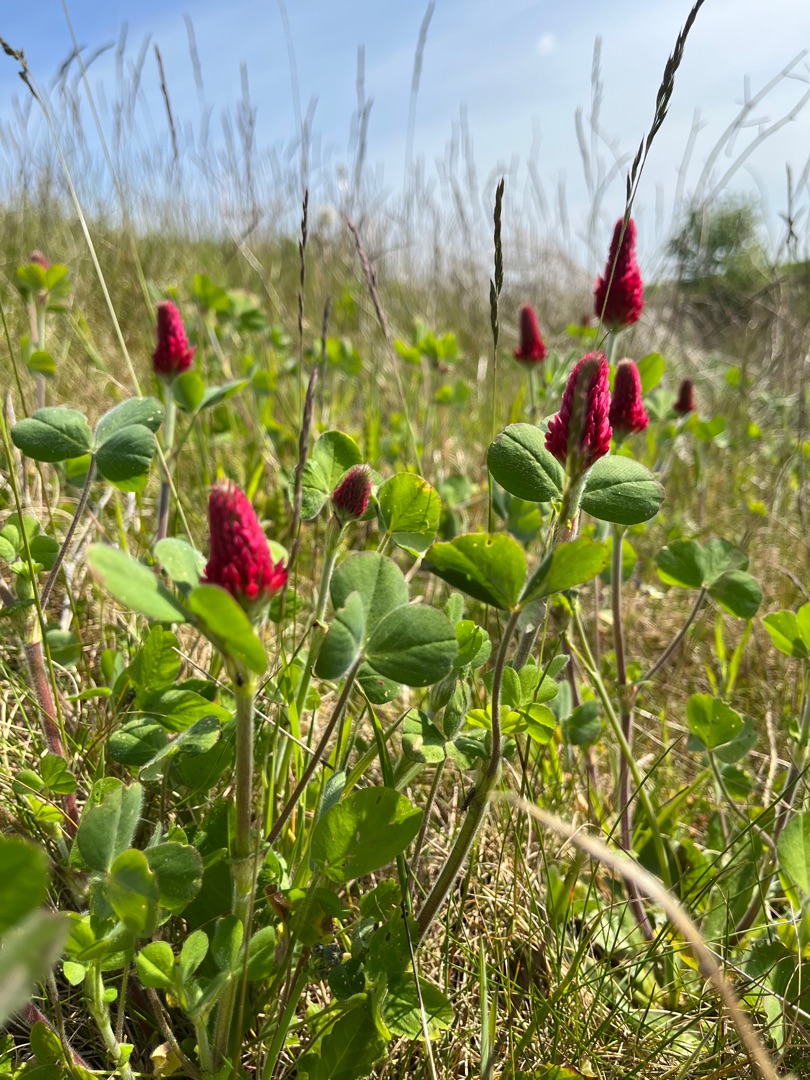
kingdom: Plantae
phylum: Tracheophyta
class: Magnoliopsida
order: Fabales
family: Fabaceae
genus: Trifolium
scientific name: Trifolium incarnatum
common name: Blod-kløver
